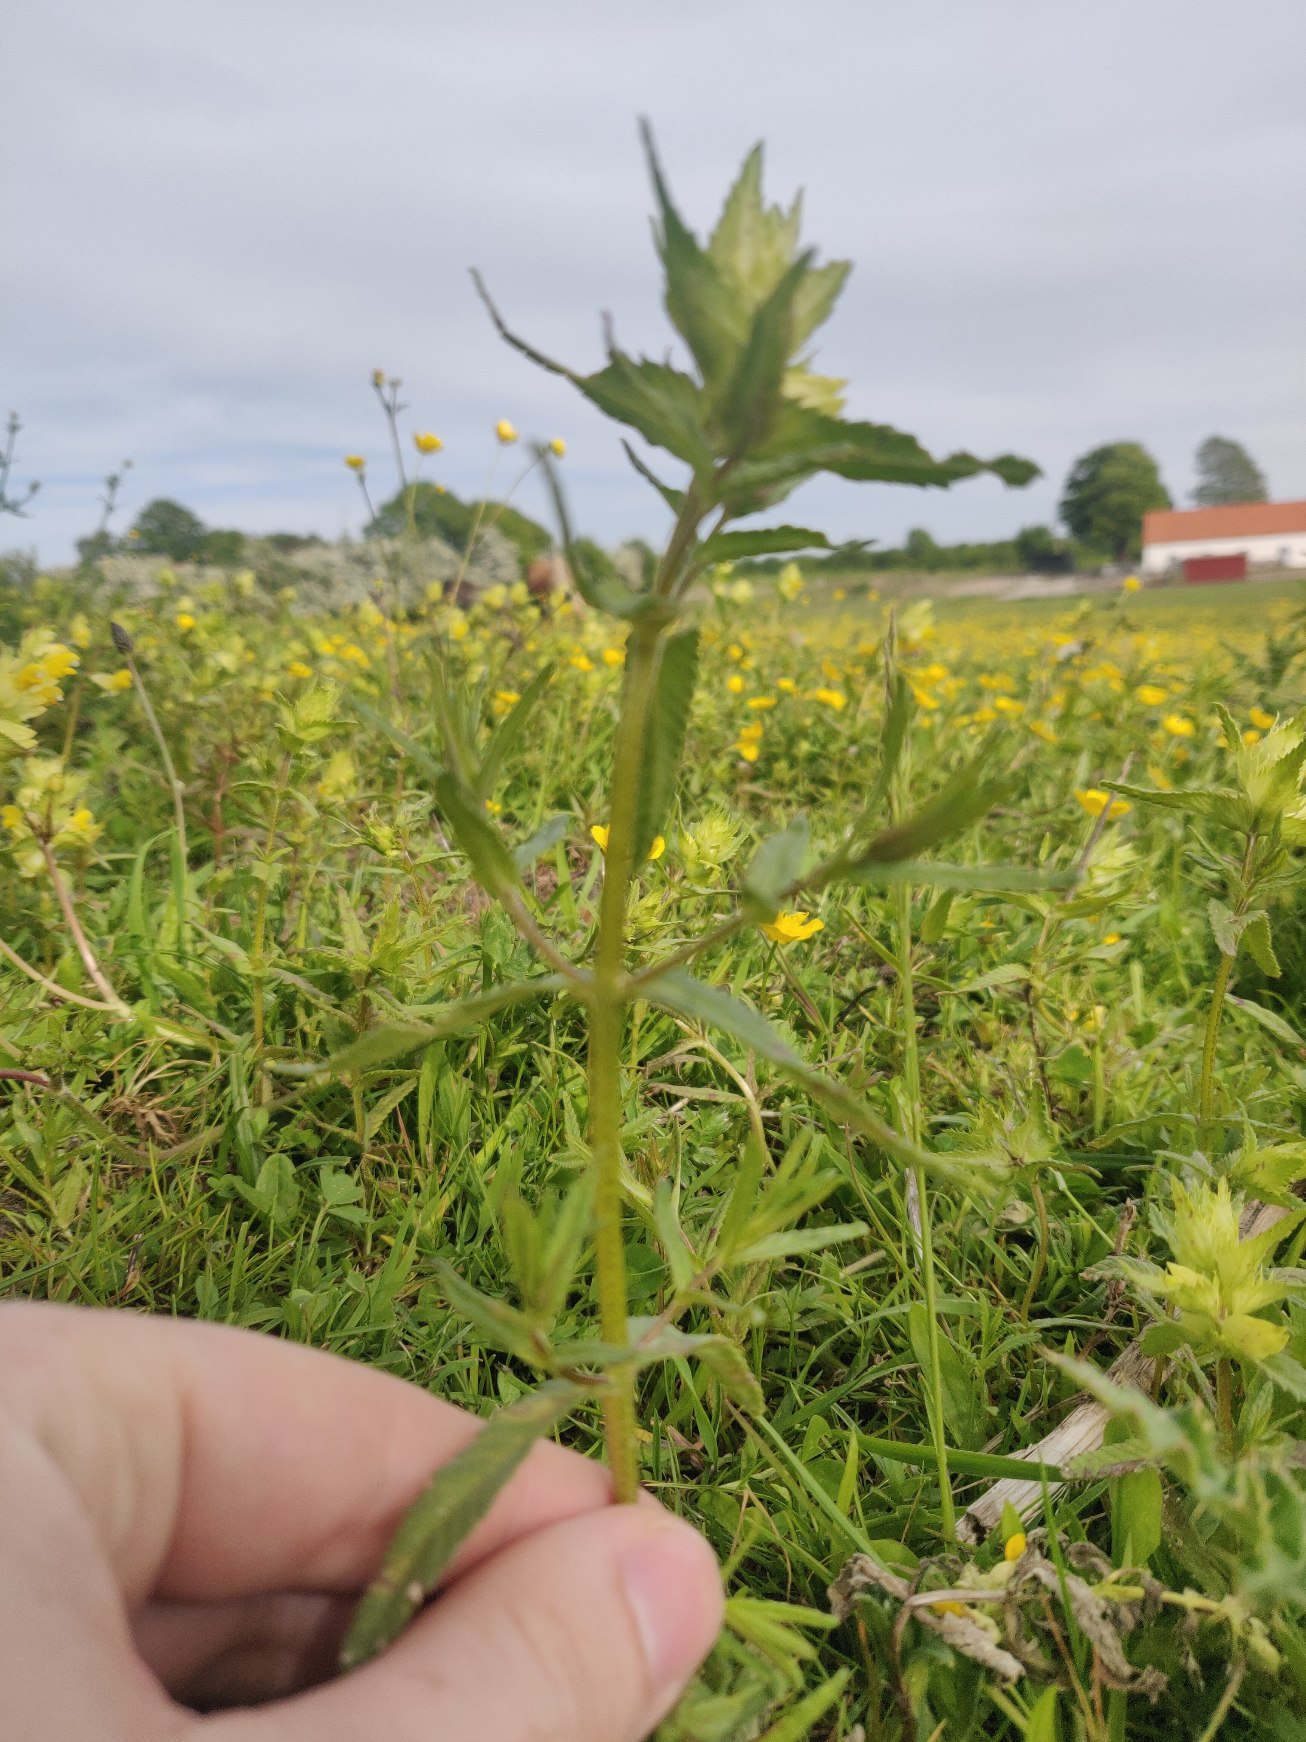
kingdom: Plantae
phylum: Tracheophyta
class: Magnoliopsida
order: Lamiales
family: Orobanchaceae
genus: Rhinanthus
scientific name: Rhinanthus
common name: Stor skjaller
